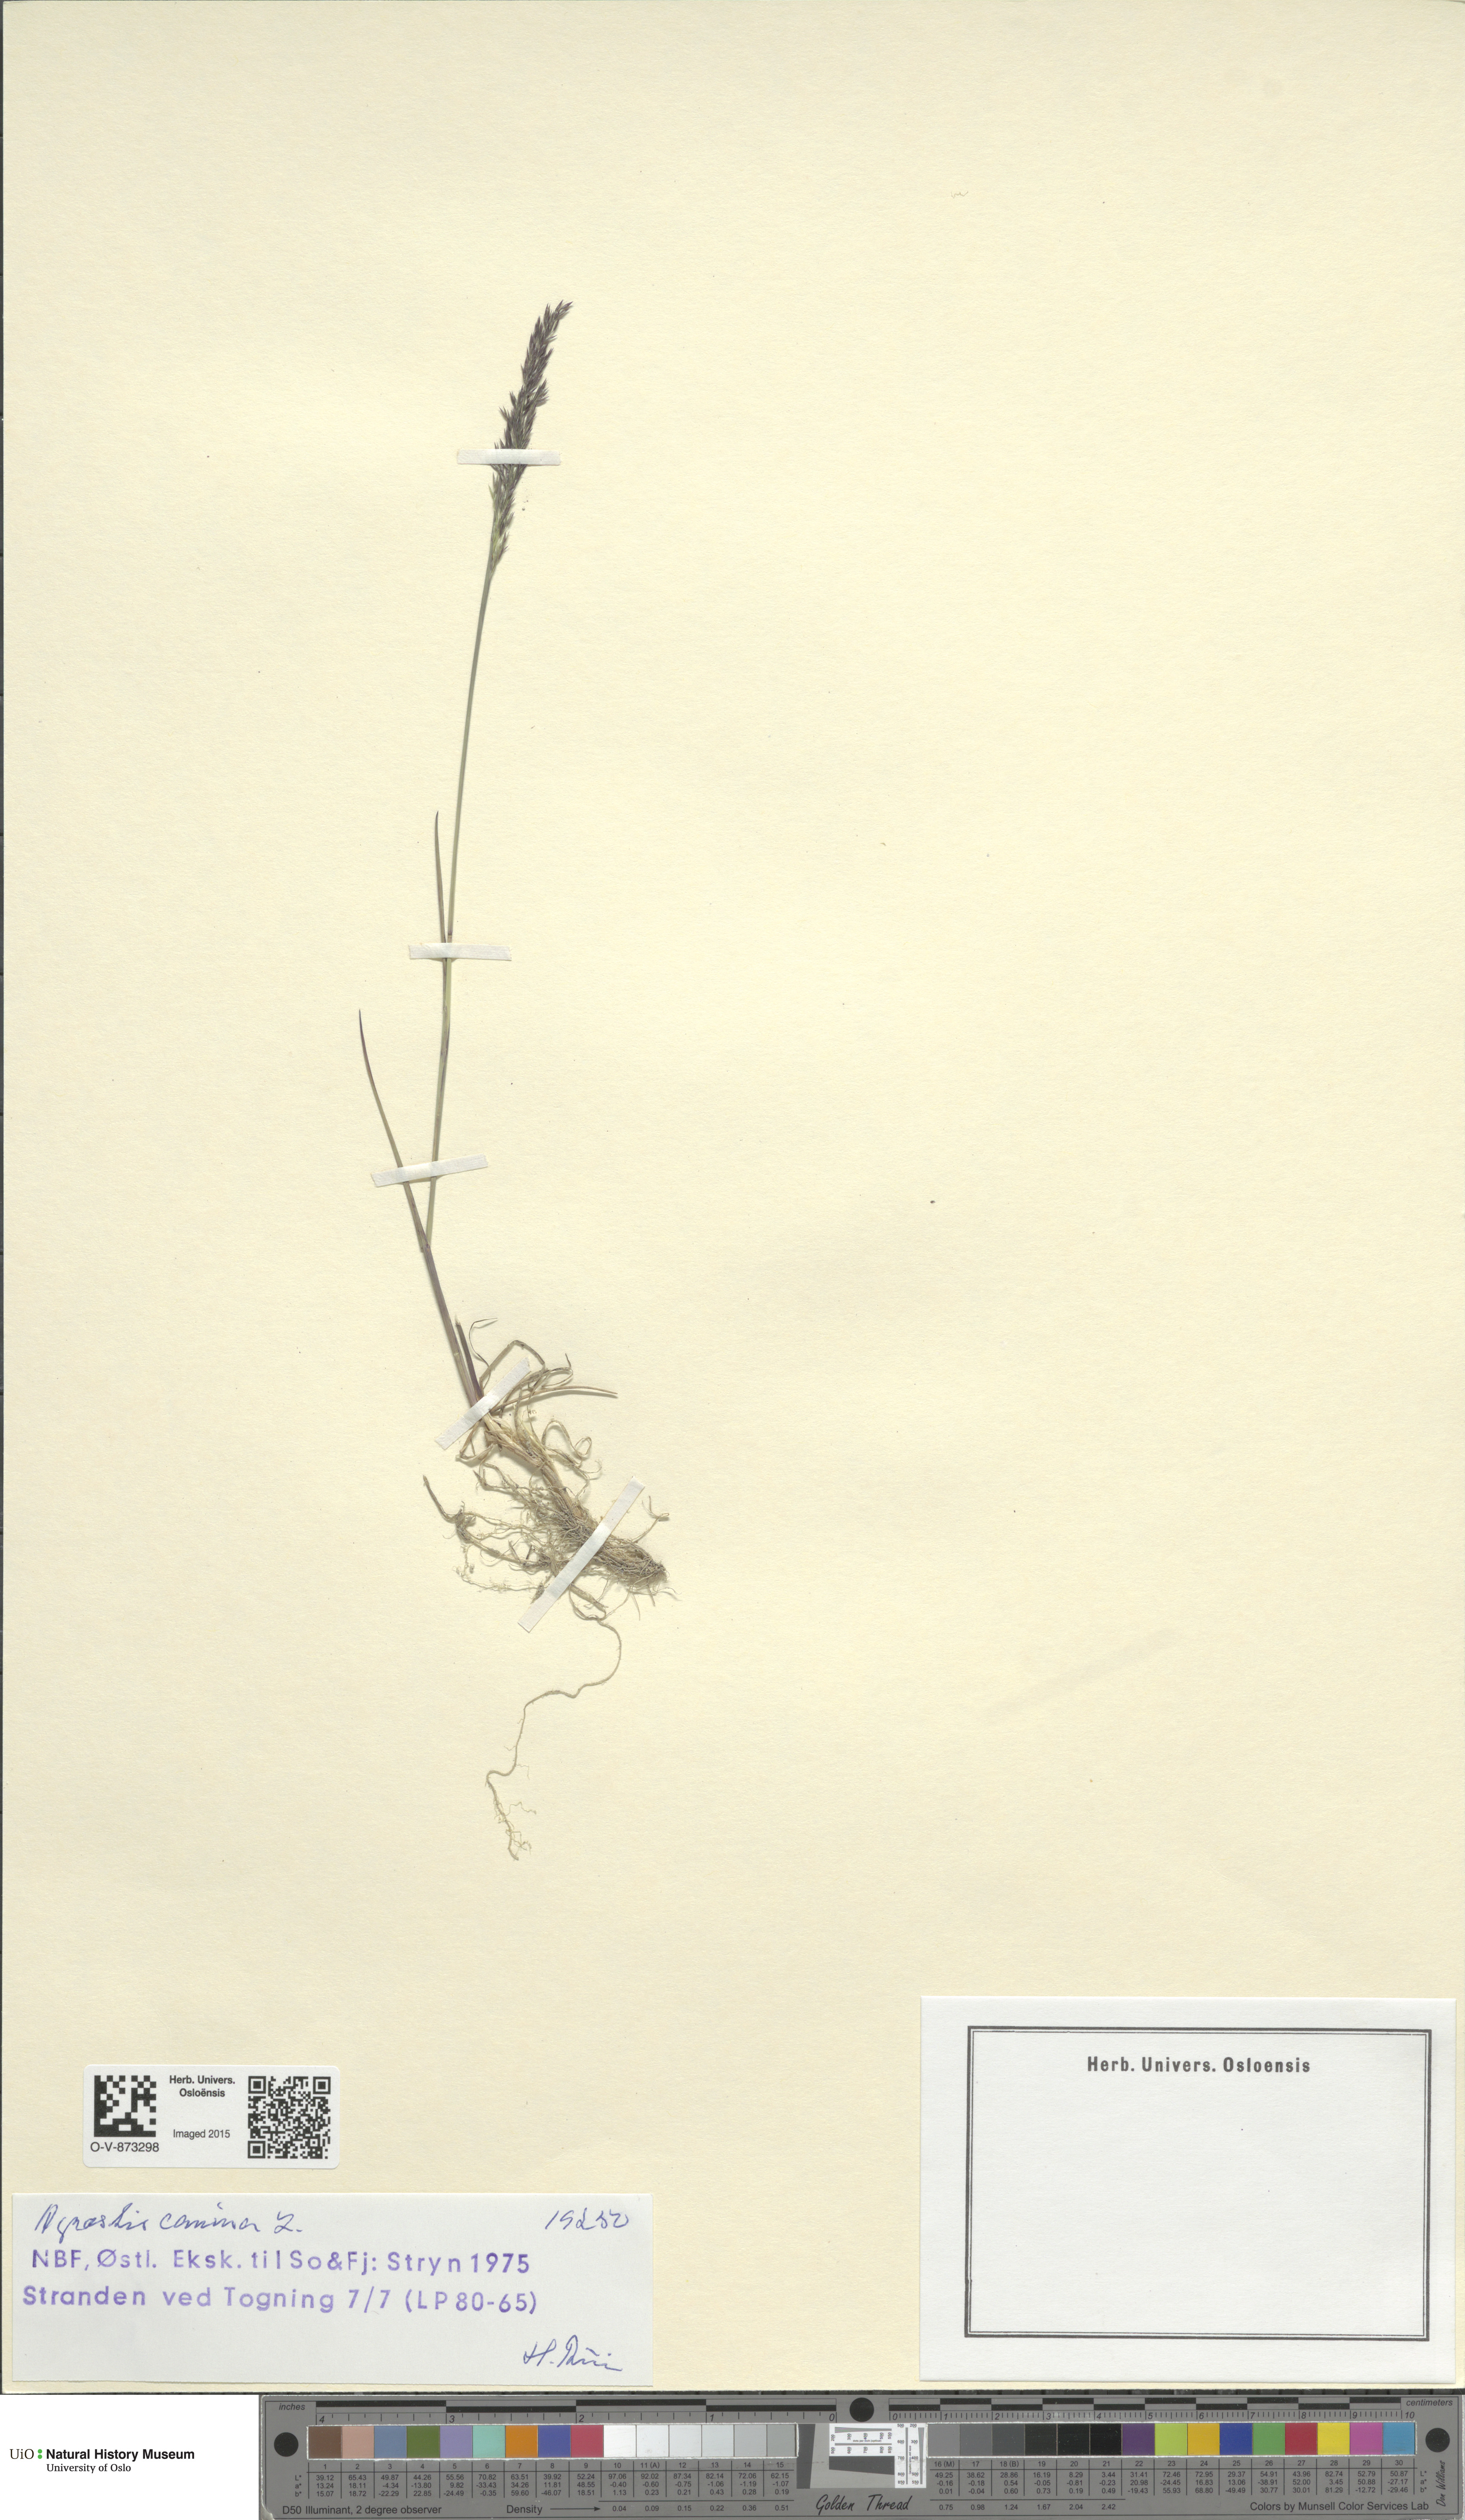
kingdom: Plantae
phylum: Tracheophyta
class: Liliopsida
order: Poales
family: Poaceae
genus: Agrostis
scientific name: Agrostis canina
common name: Velvet bent
